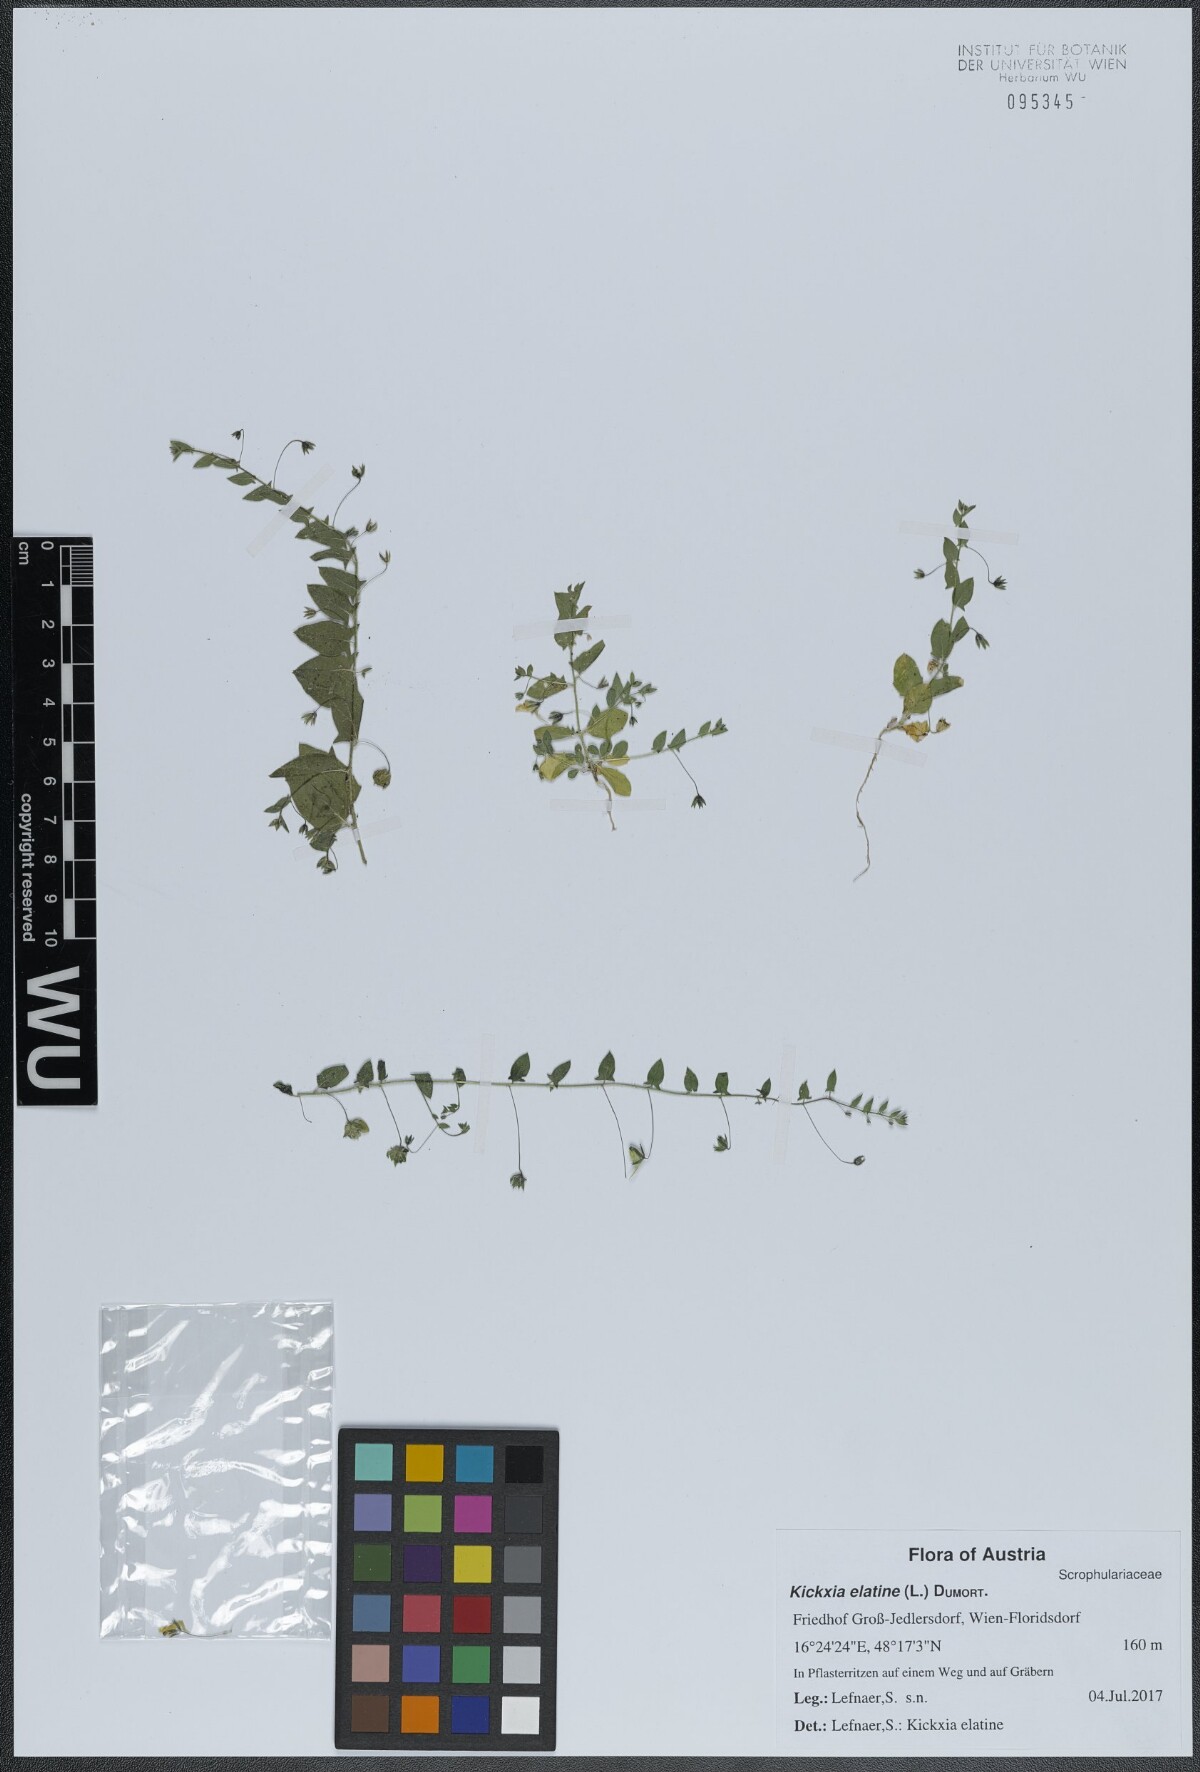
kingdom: Plantae
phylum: Tracheophyta
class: Magnoliopsida
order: Lamiales
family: Plantaginaceae
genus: Kickxia
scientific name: Kickxia elatine
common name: Sharp-leaved fluellen
